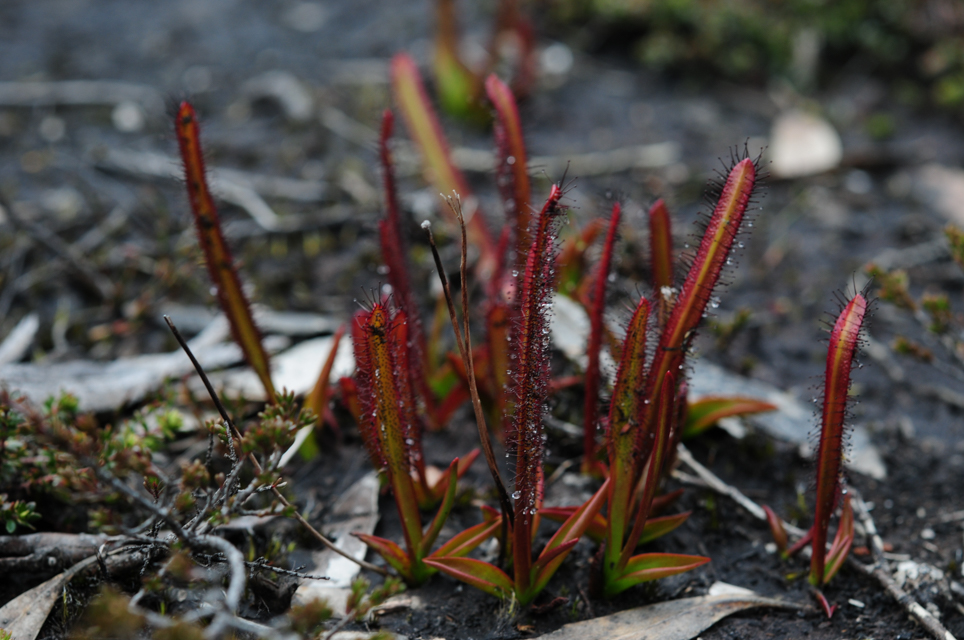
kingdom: Plantae
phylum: Tracheophyta
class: Magnoliopsida
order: Caryophyllales
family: Droseraceae
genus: Drosera
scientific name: Drosera arcturi
